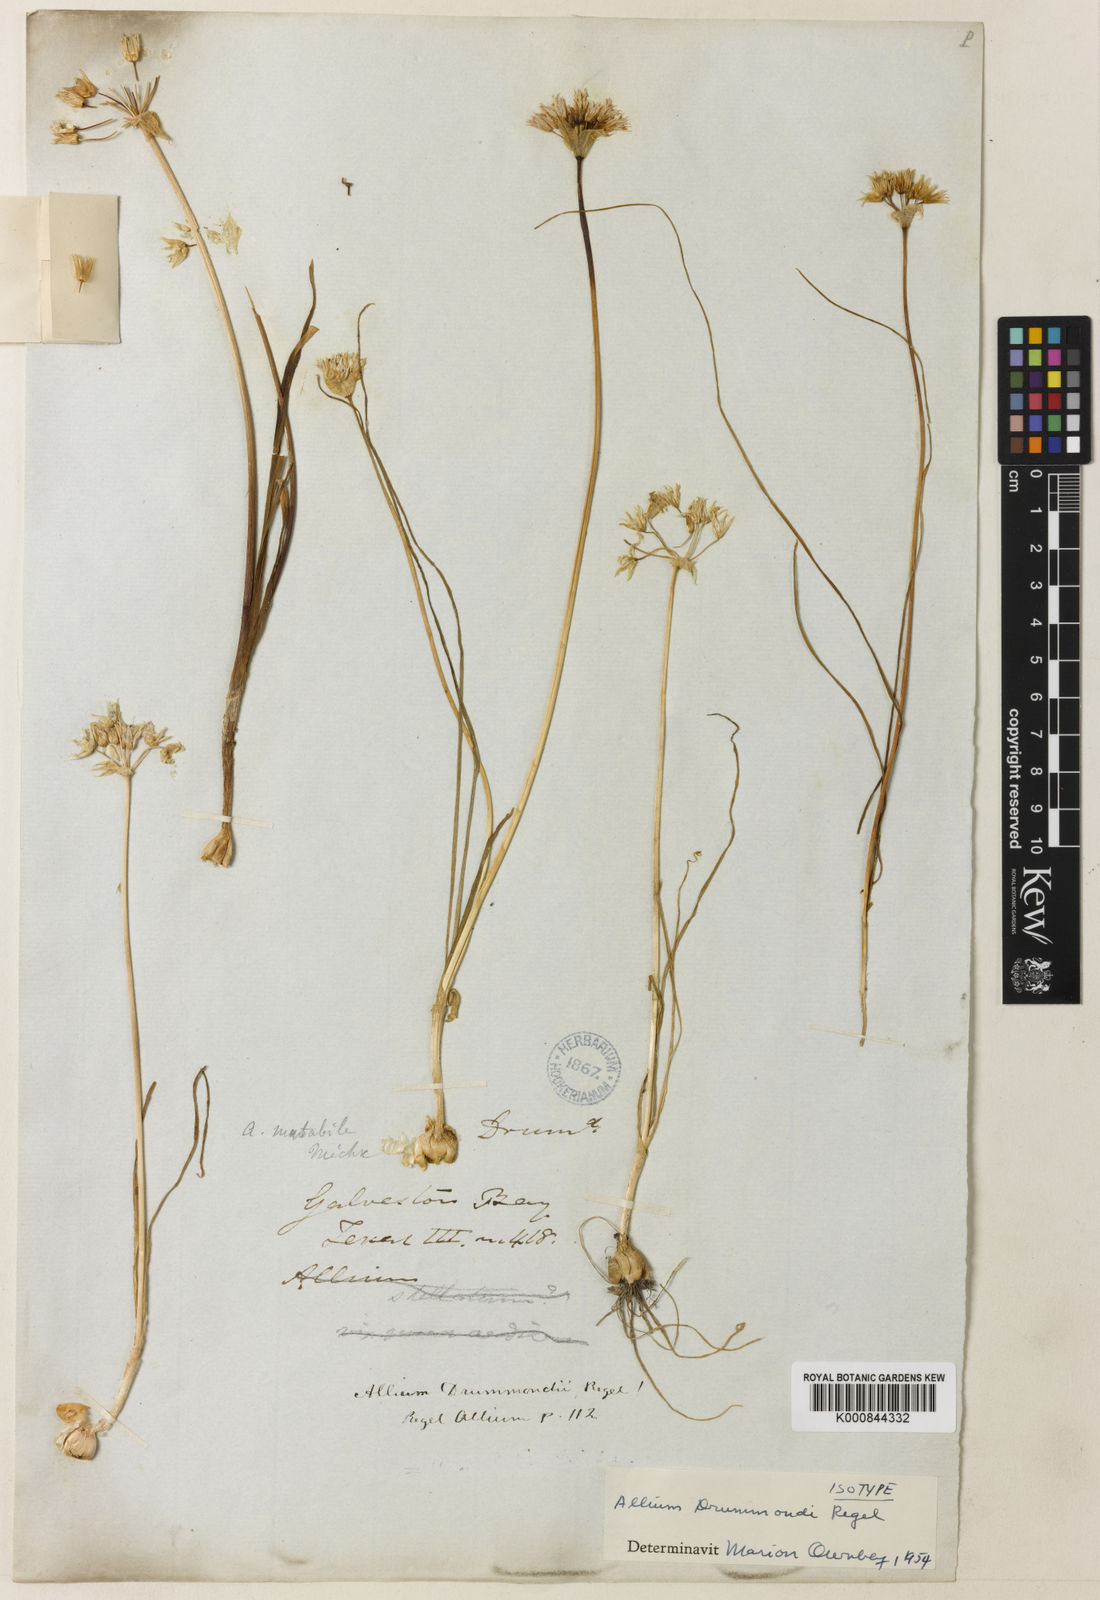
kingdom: Plantae
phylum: Tracheophyta
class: Liliopsida
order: Asparagales
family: Amaryllidaceae
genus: Allium
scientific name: Allium drummondii
